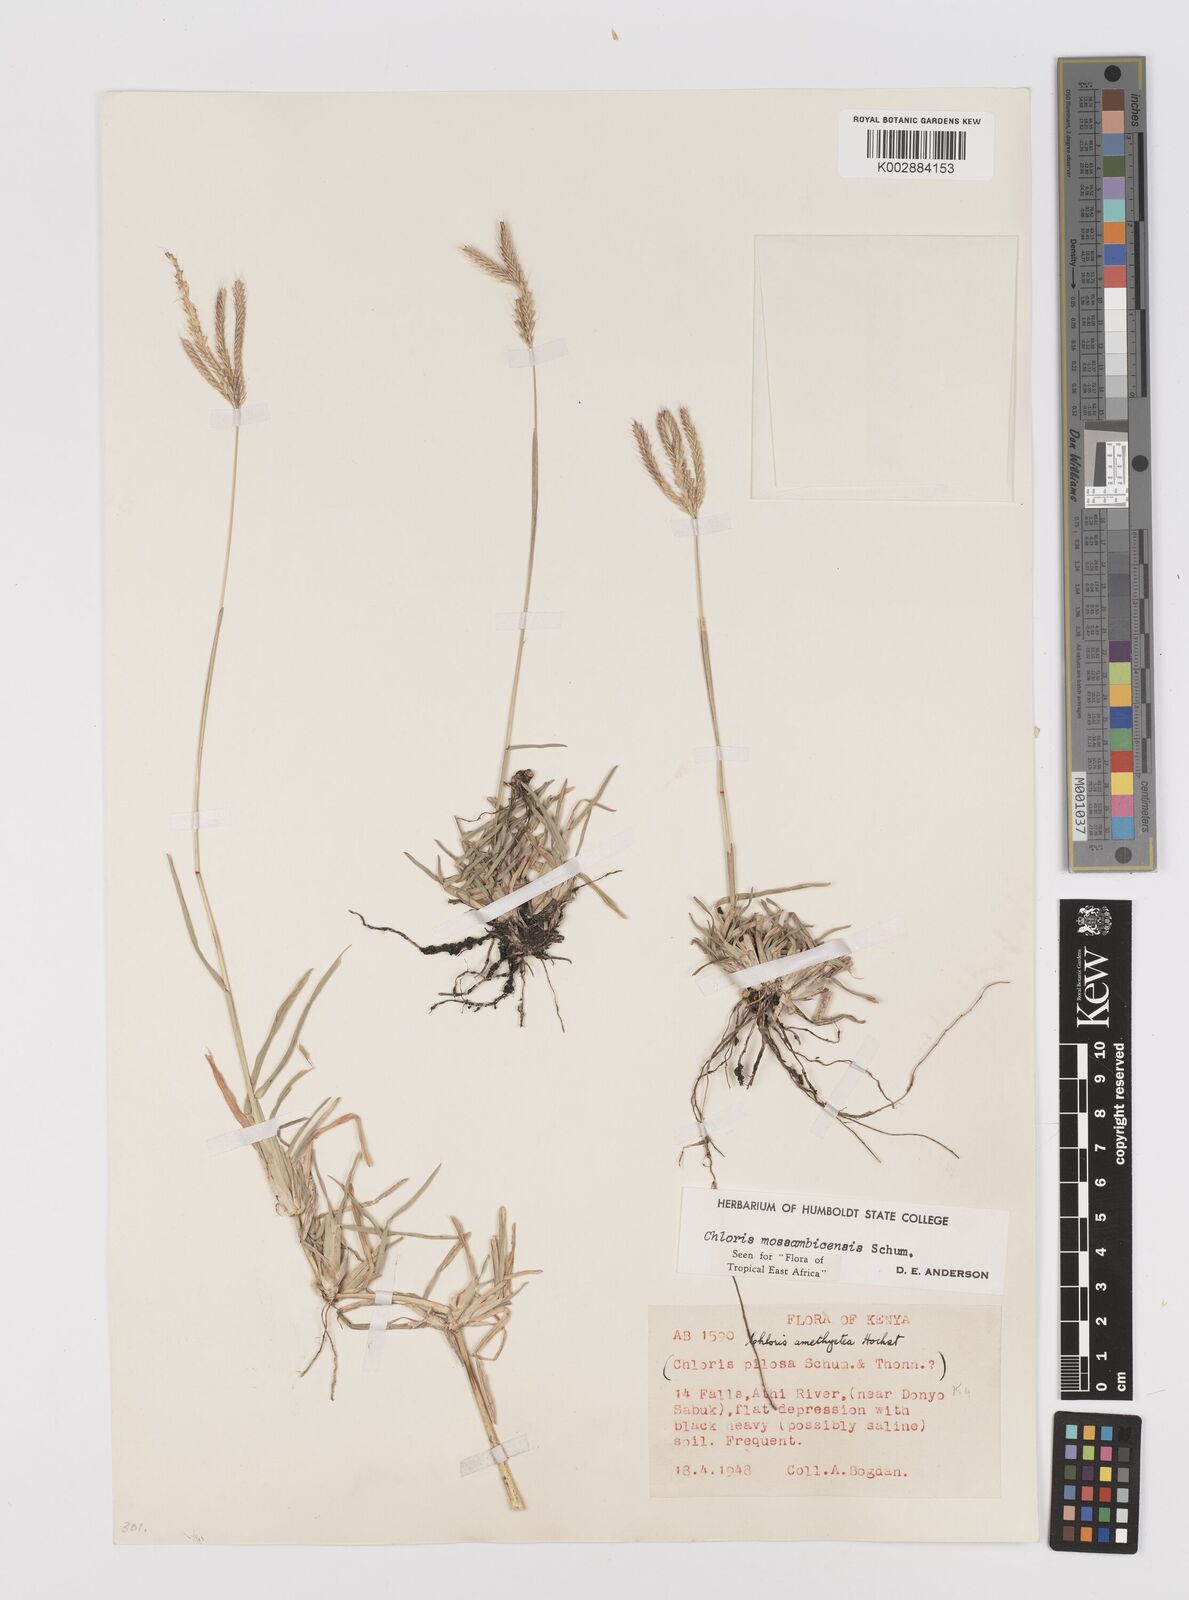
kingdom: Plantae
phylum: Tracheophyta
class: Liliopsida
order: Poales
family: Poaceae
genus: Chloris
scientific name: Chloris mossambicensis
